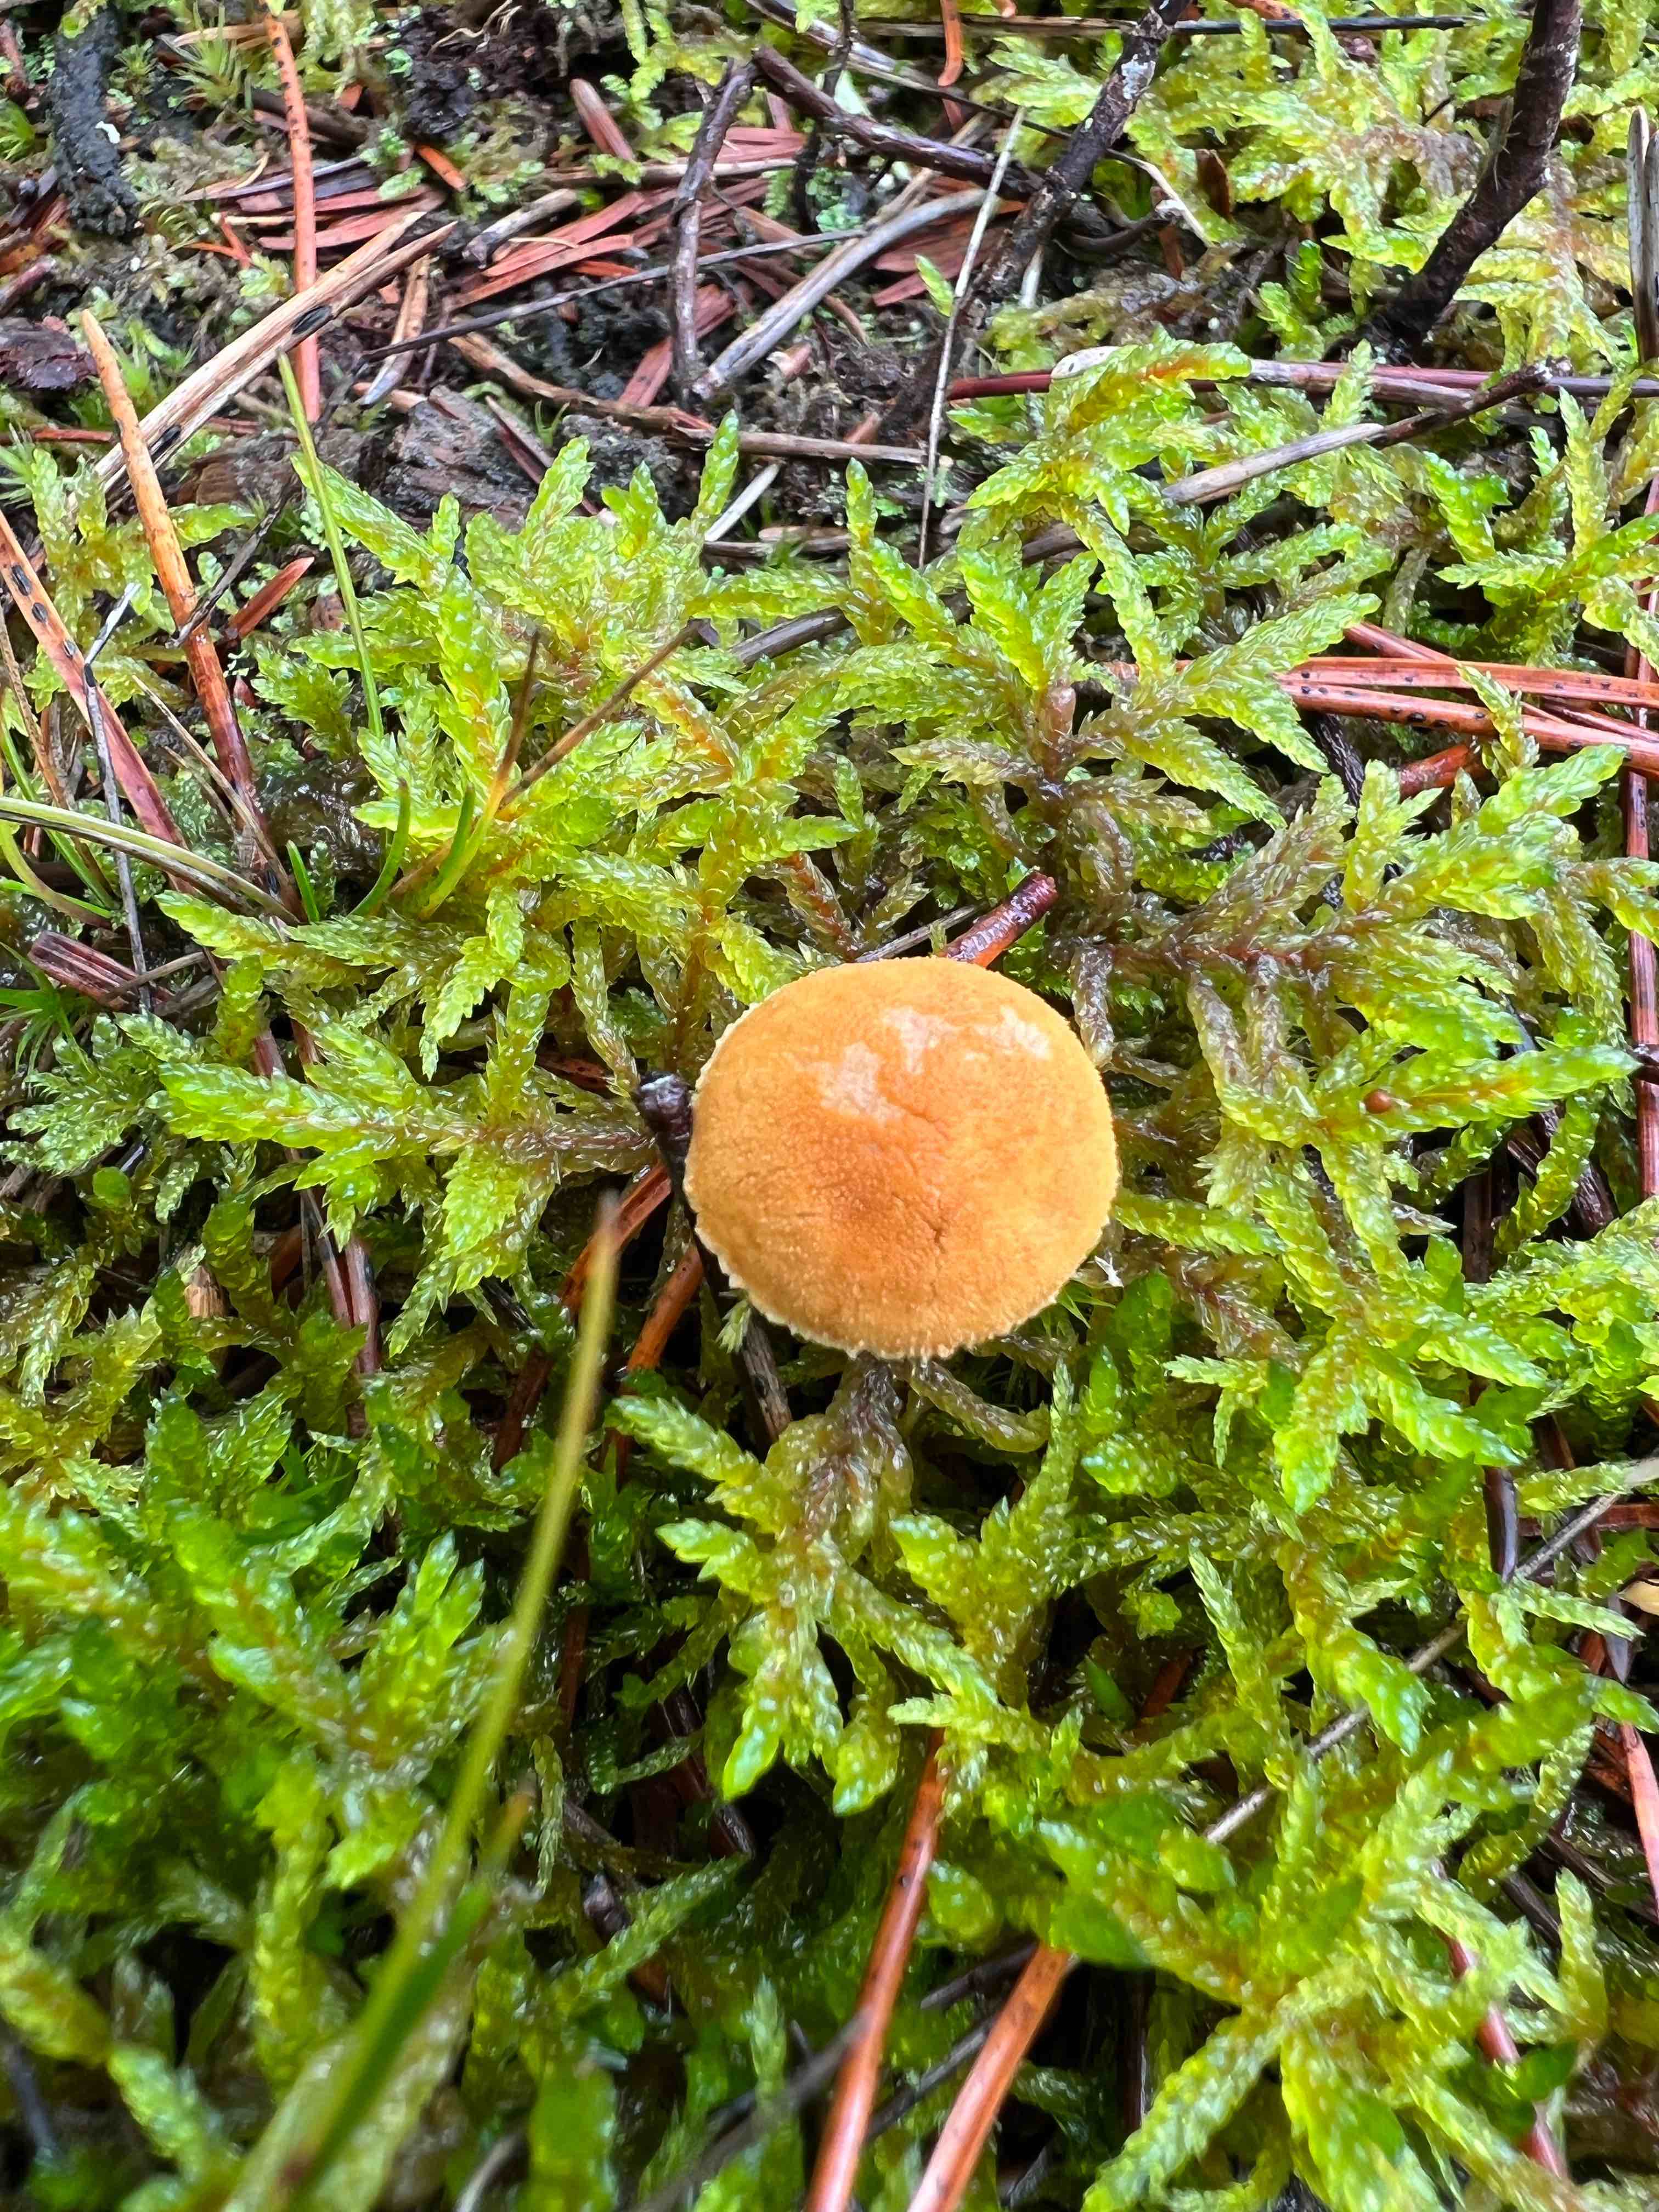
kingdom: Fungi
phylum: Basidiomycota
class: Agaricomycetes
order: Agaricales
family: Tricholomataceae
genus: Cystoderma
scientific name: Cystoderma amianthinum
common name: okkergul grynhat
